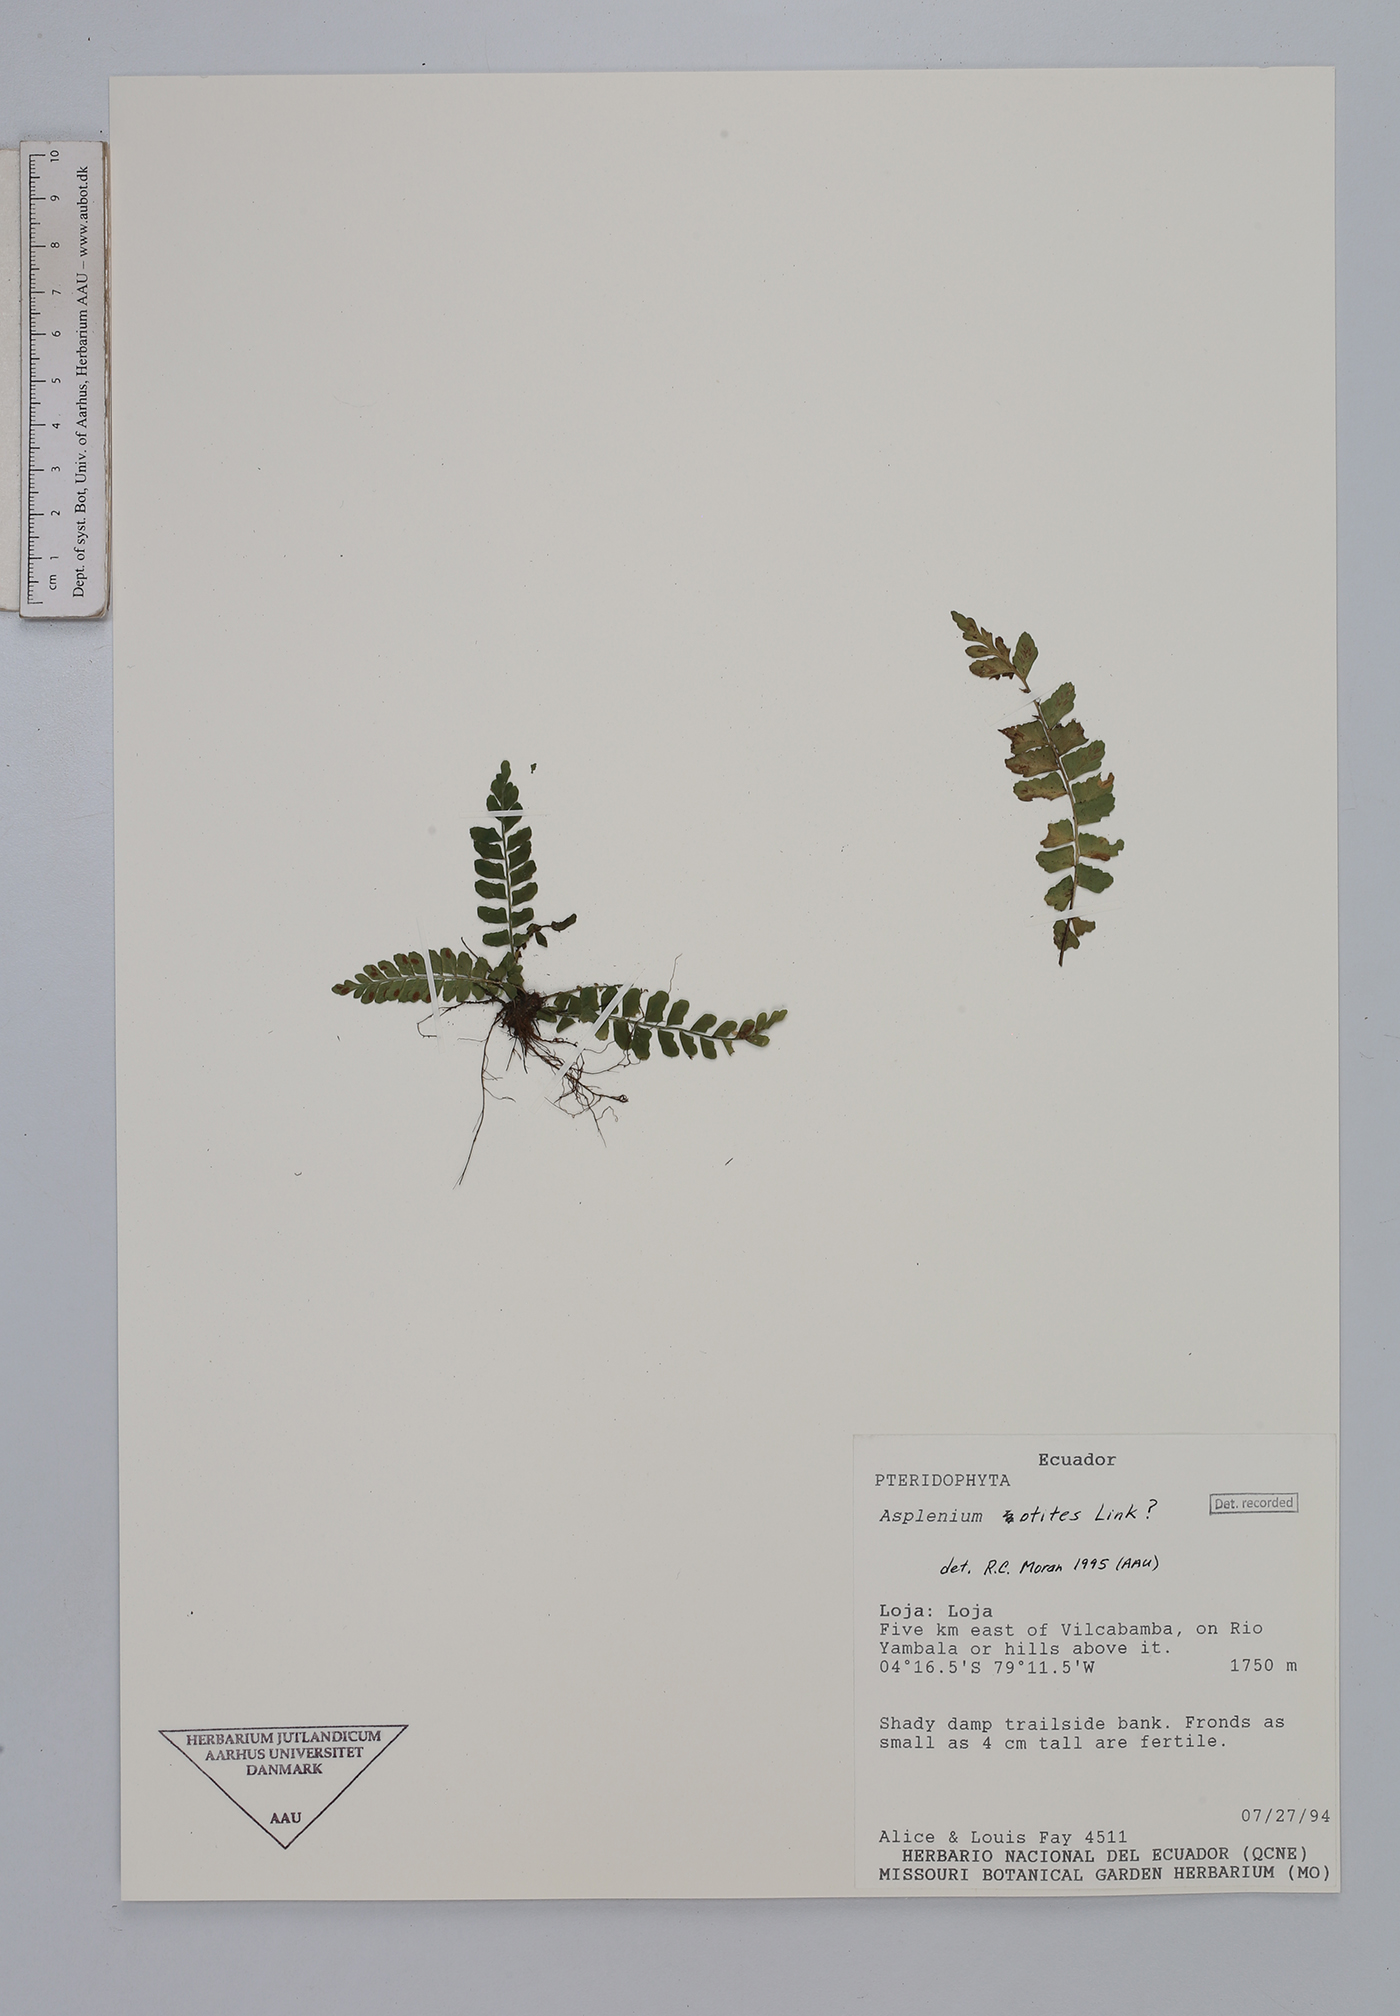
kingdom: Plantae
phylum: Tracheophyta
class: Polypodiopsida
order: Polypodiales
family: Aspleniaceae
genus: Hymenasplenium
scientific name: Hymenasplenium ortegae
